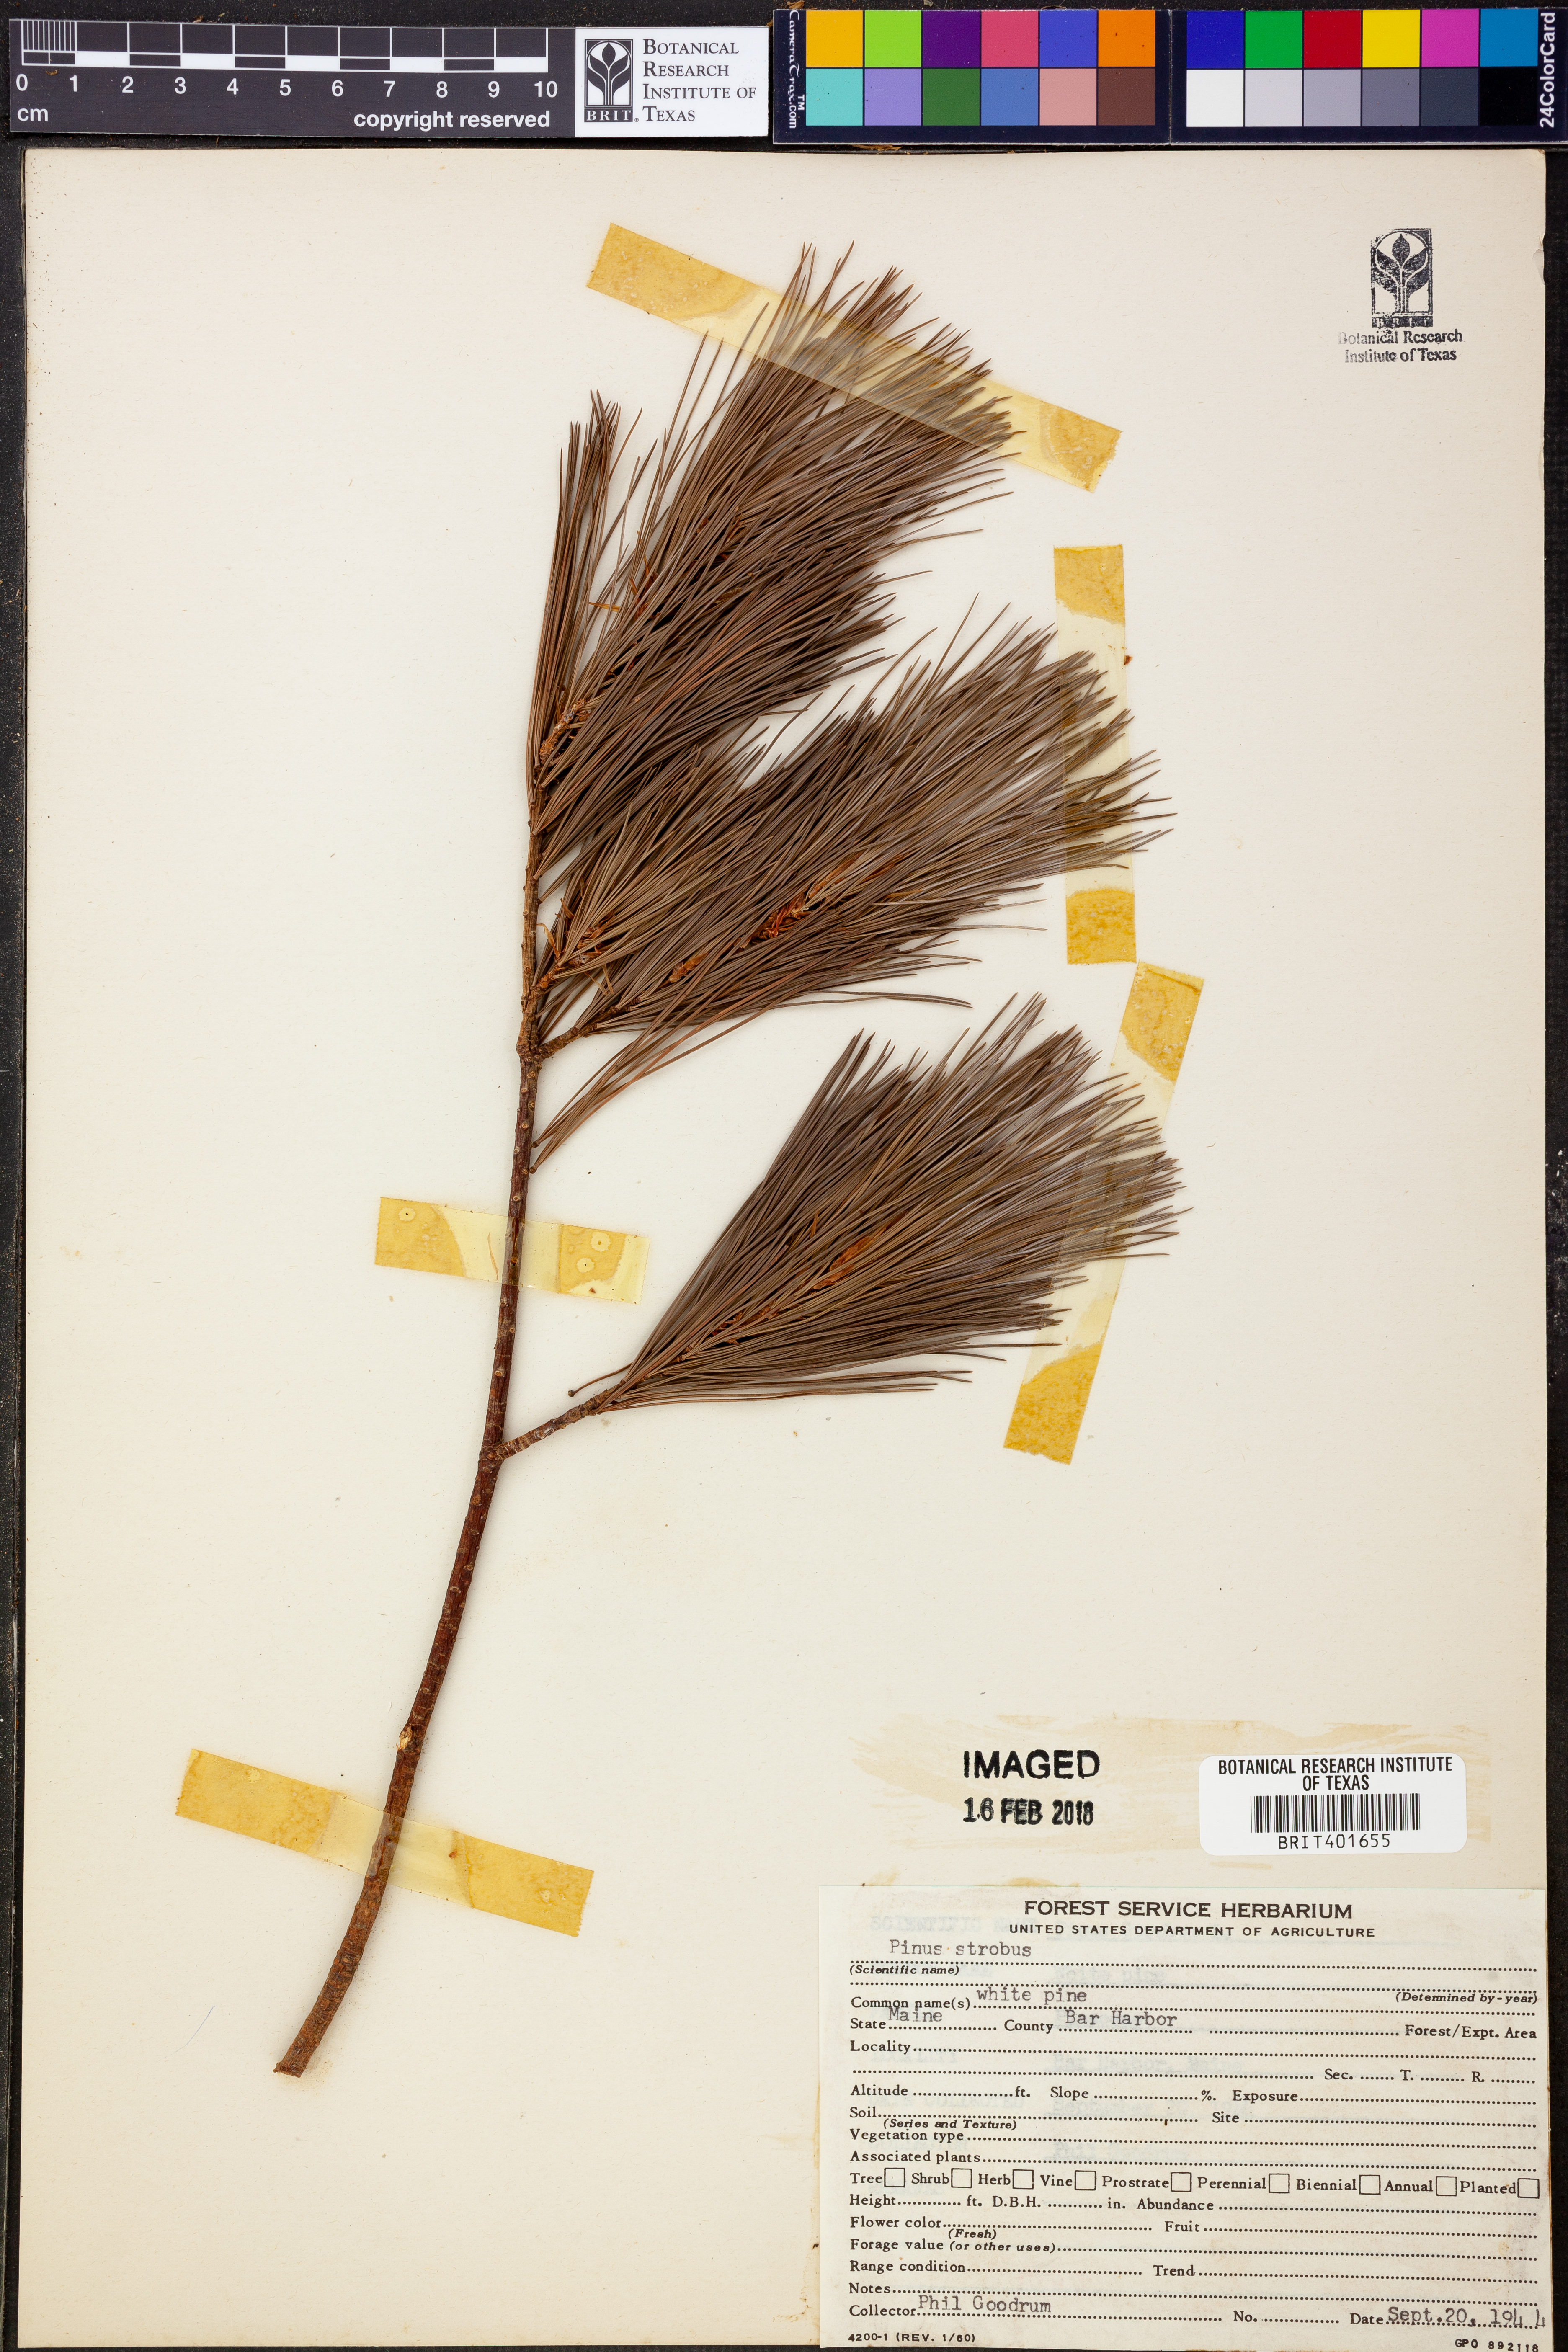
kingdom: Plantae
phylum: Tracheophyta
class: Pinopsida
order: Pinales
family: Pinaceae
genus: Pinus
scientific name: Pinus strobus
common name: Weymouth pine
